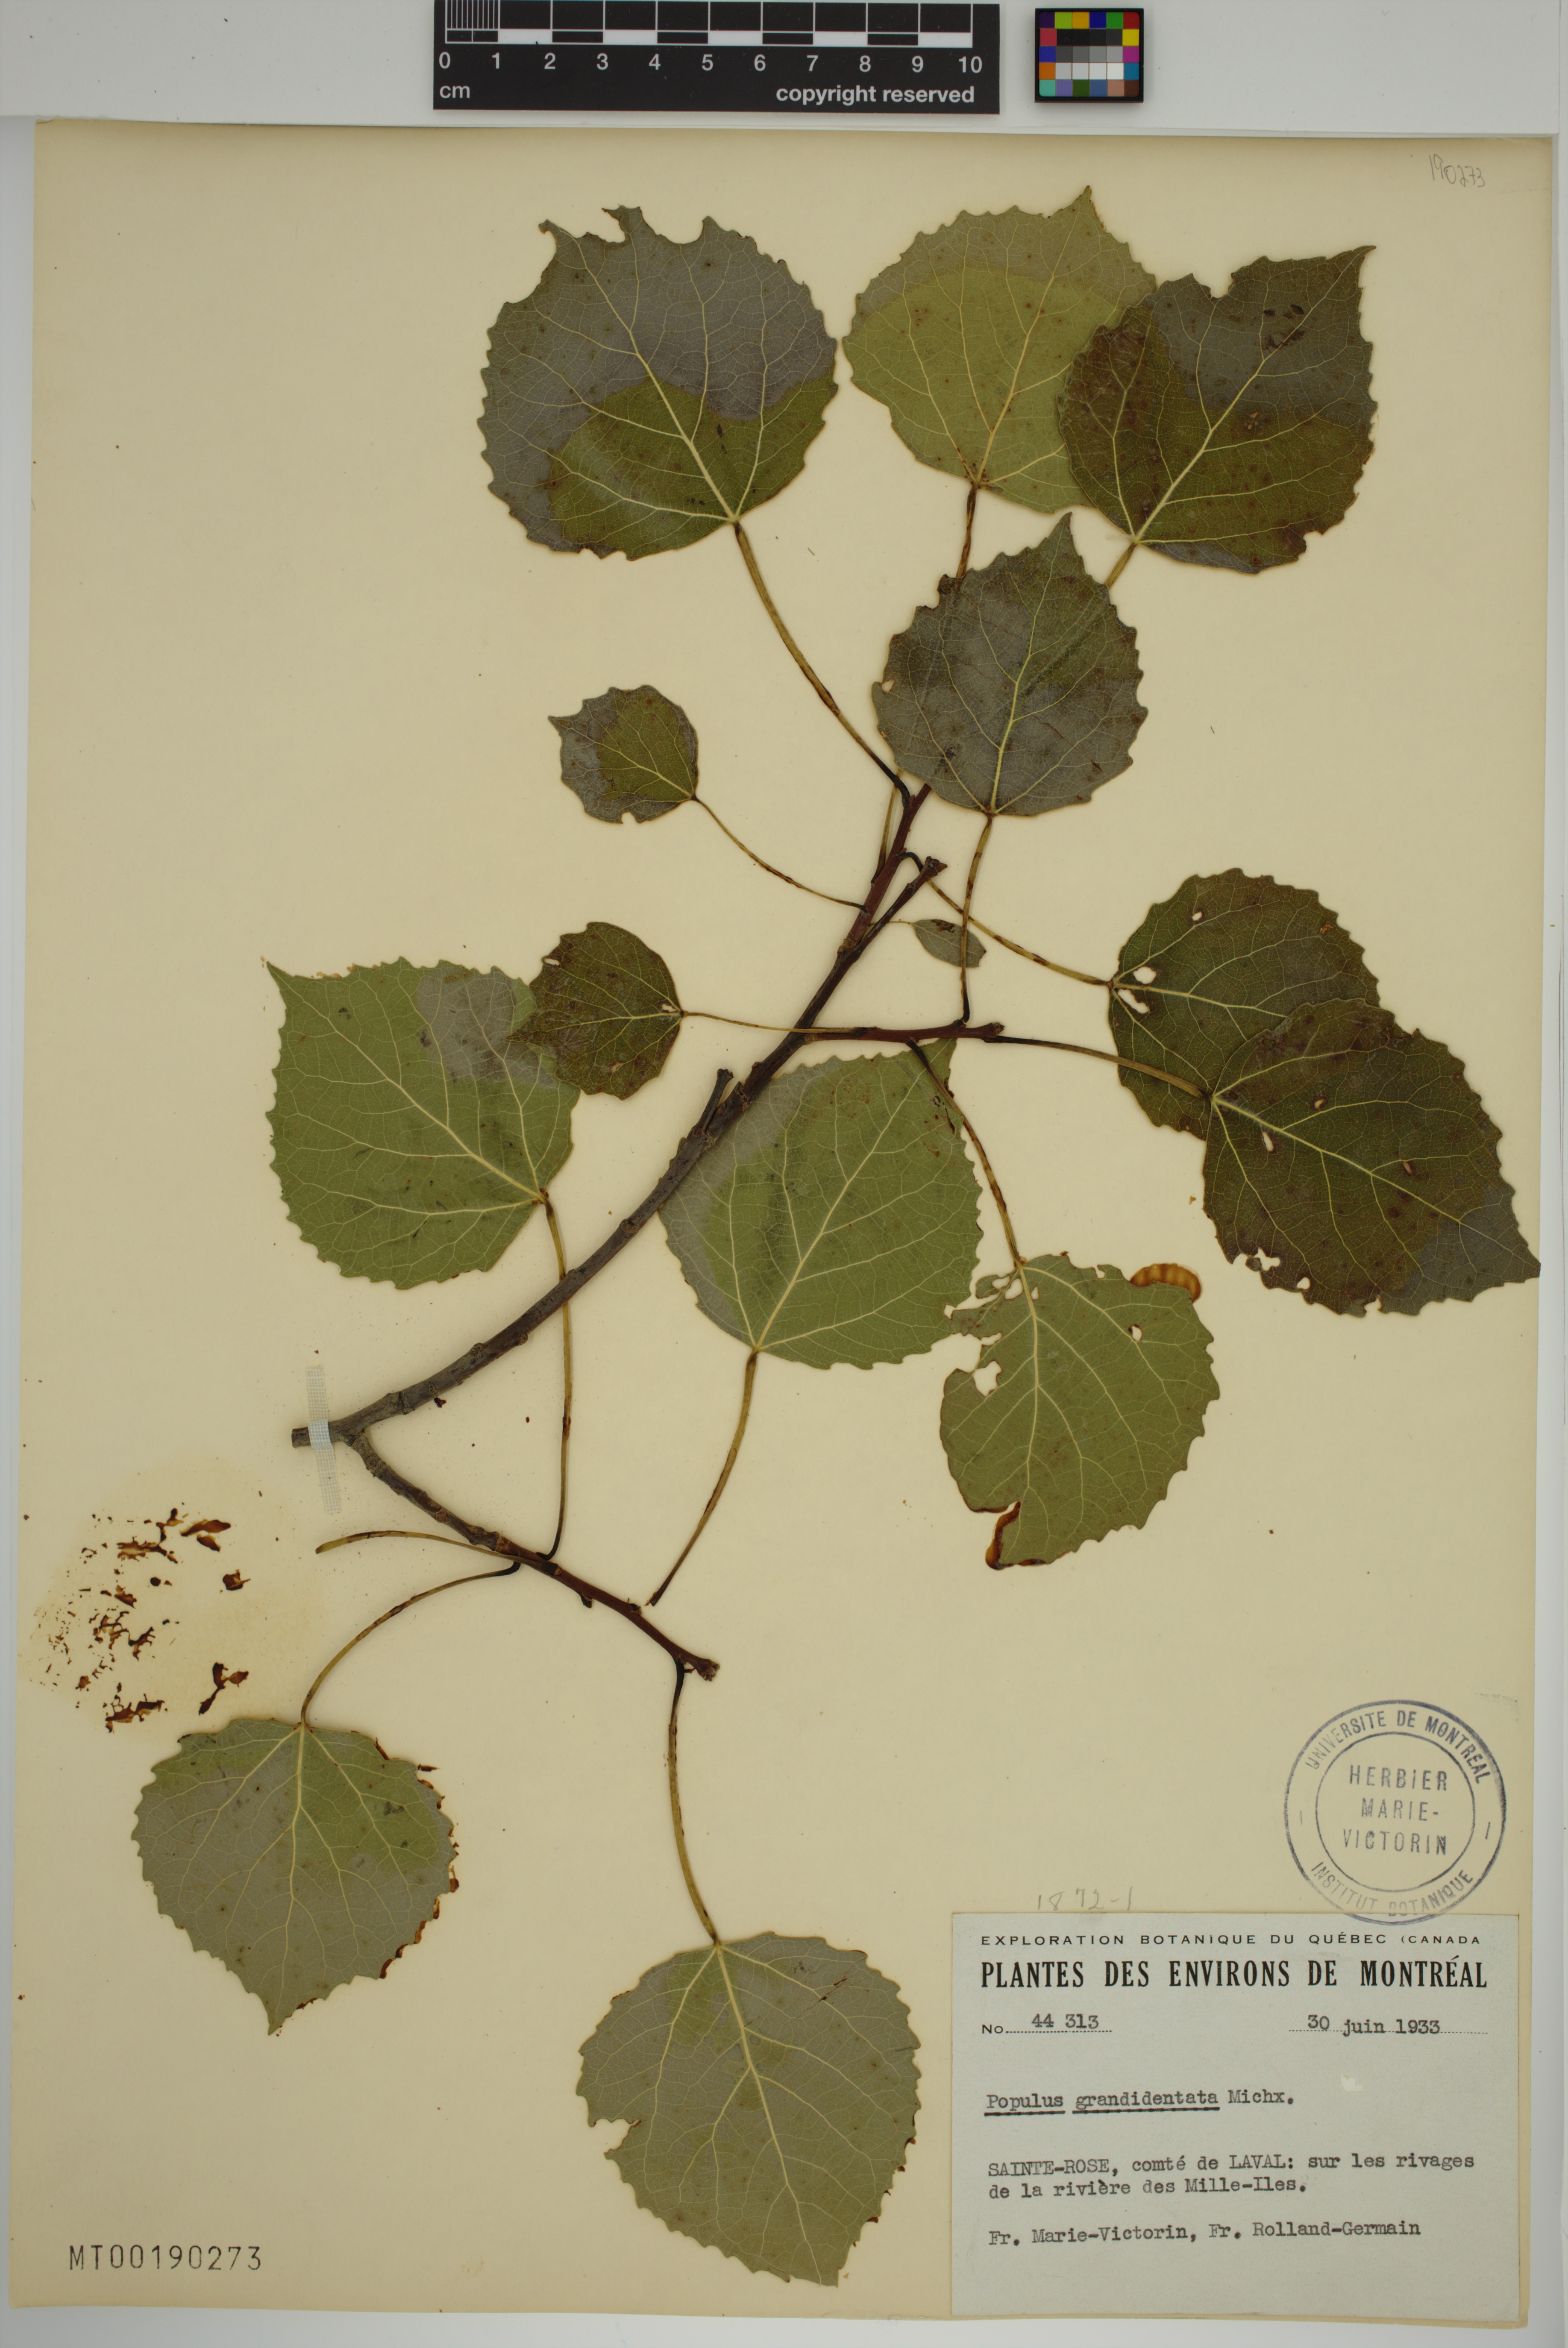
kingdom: Plantae
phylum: Tracheophyta
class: Magnoliopsida
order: Malpighiales
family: Salicaceae
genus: Populus
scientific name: Populus grandidentata
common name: Bigtooth aspen
